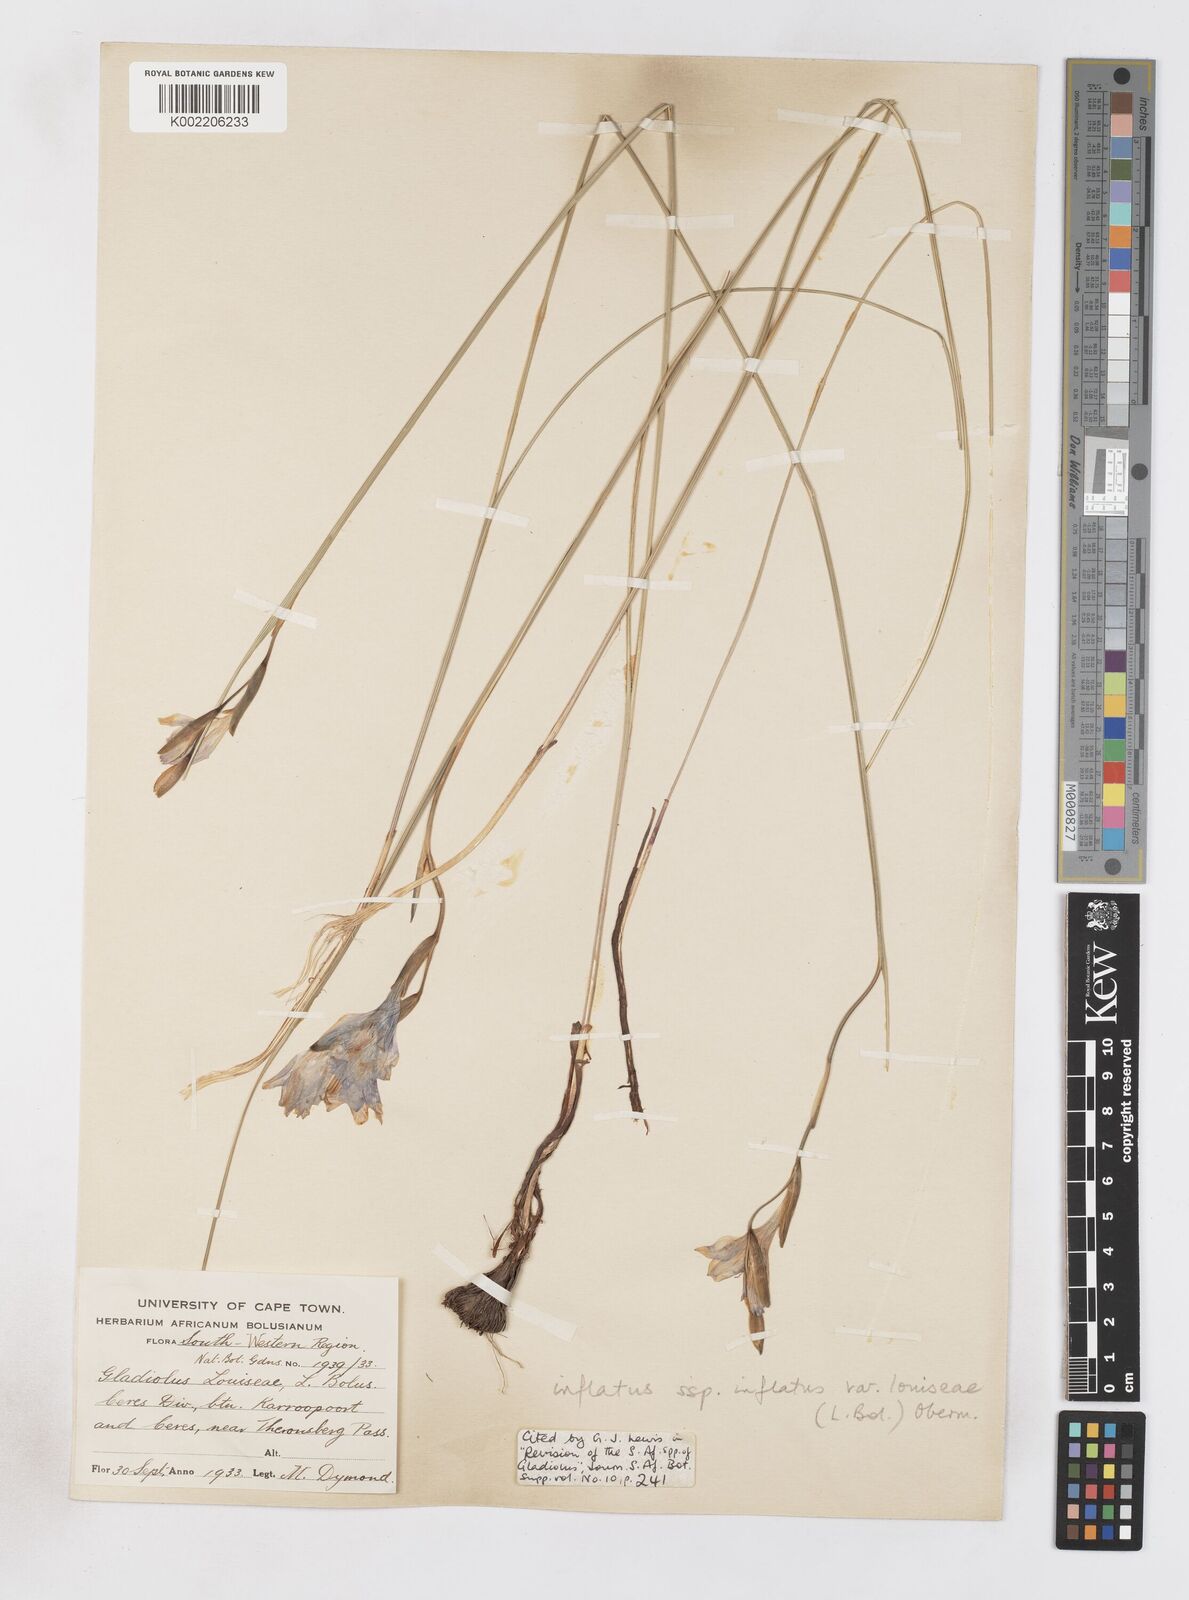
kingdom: Plantae
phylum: Tracheophyta
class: Liliopsida
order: Asparagales
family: Iridaceae
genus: Gladiolus
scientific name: Gladiolus inflatus
